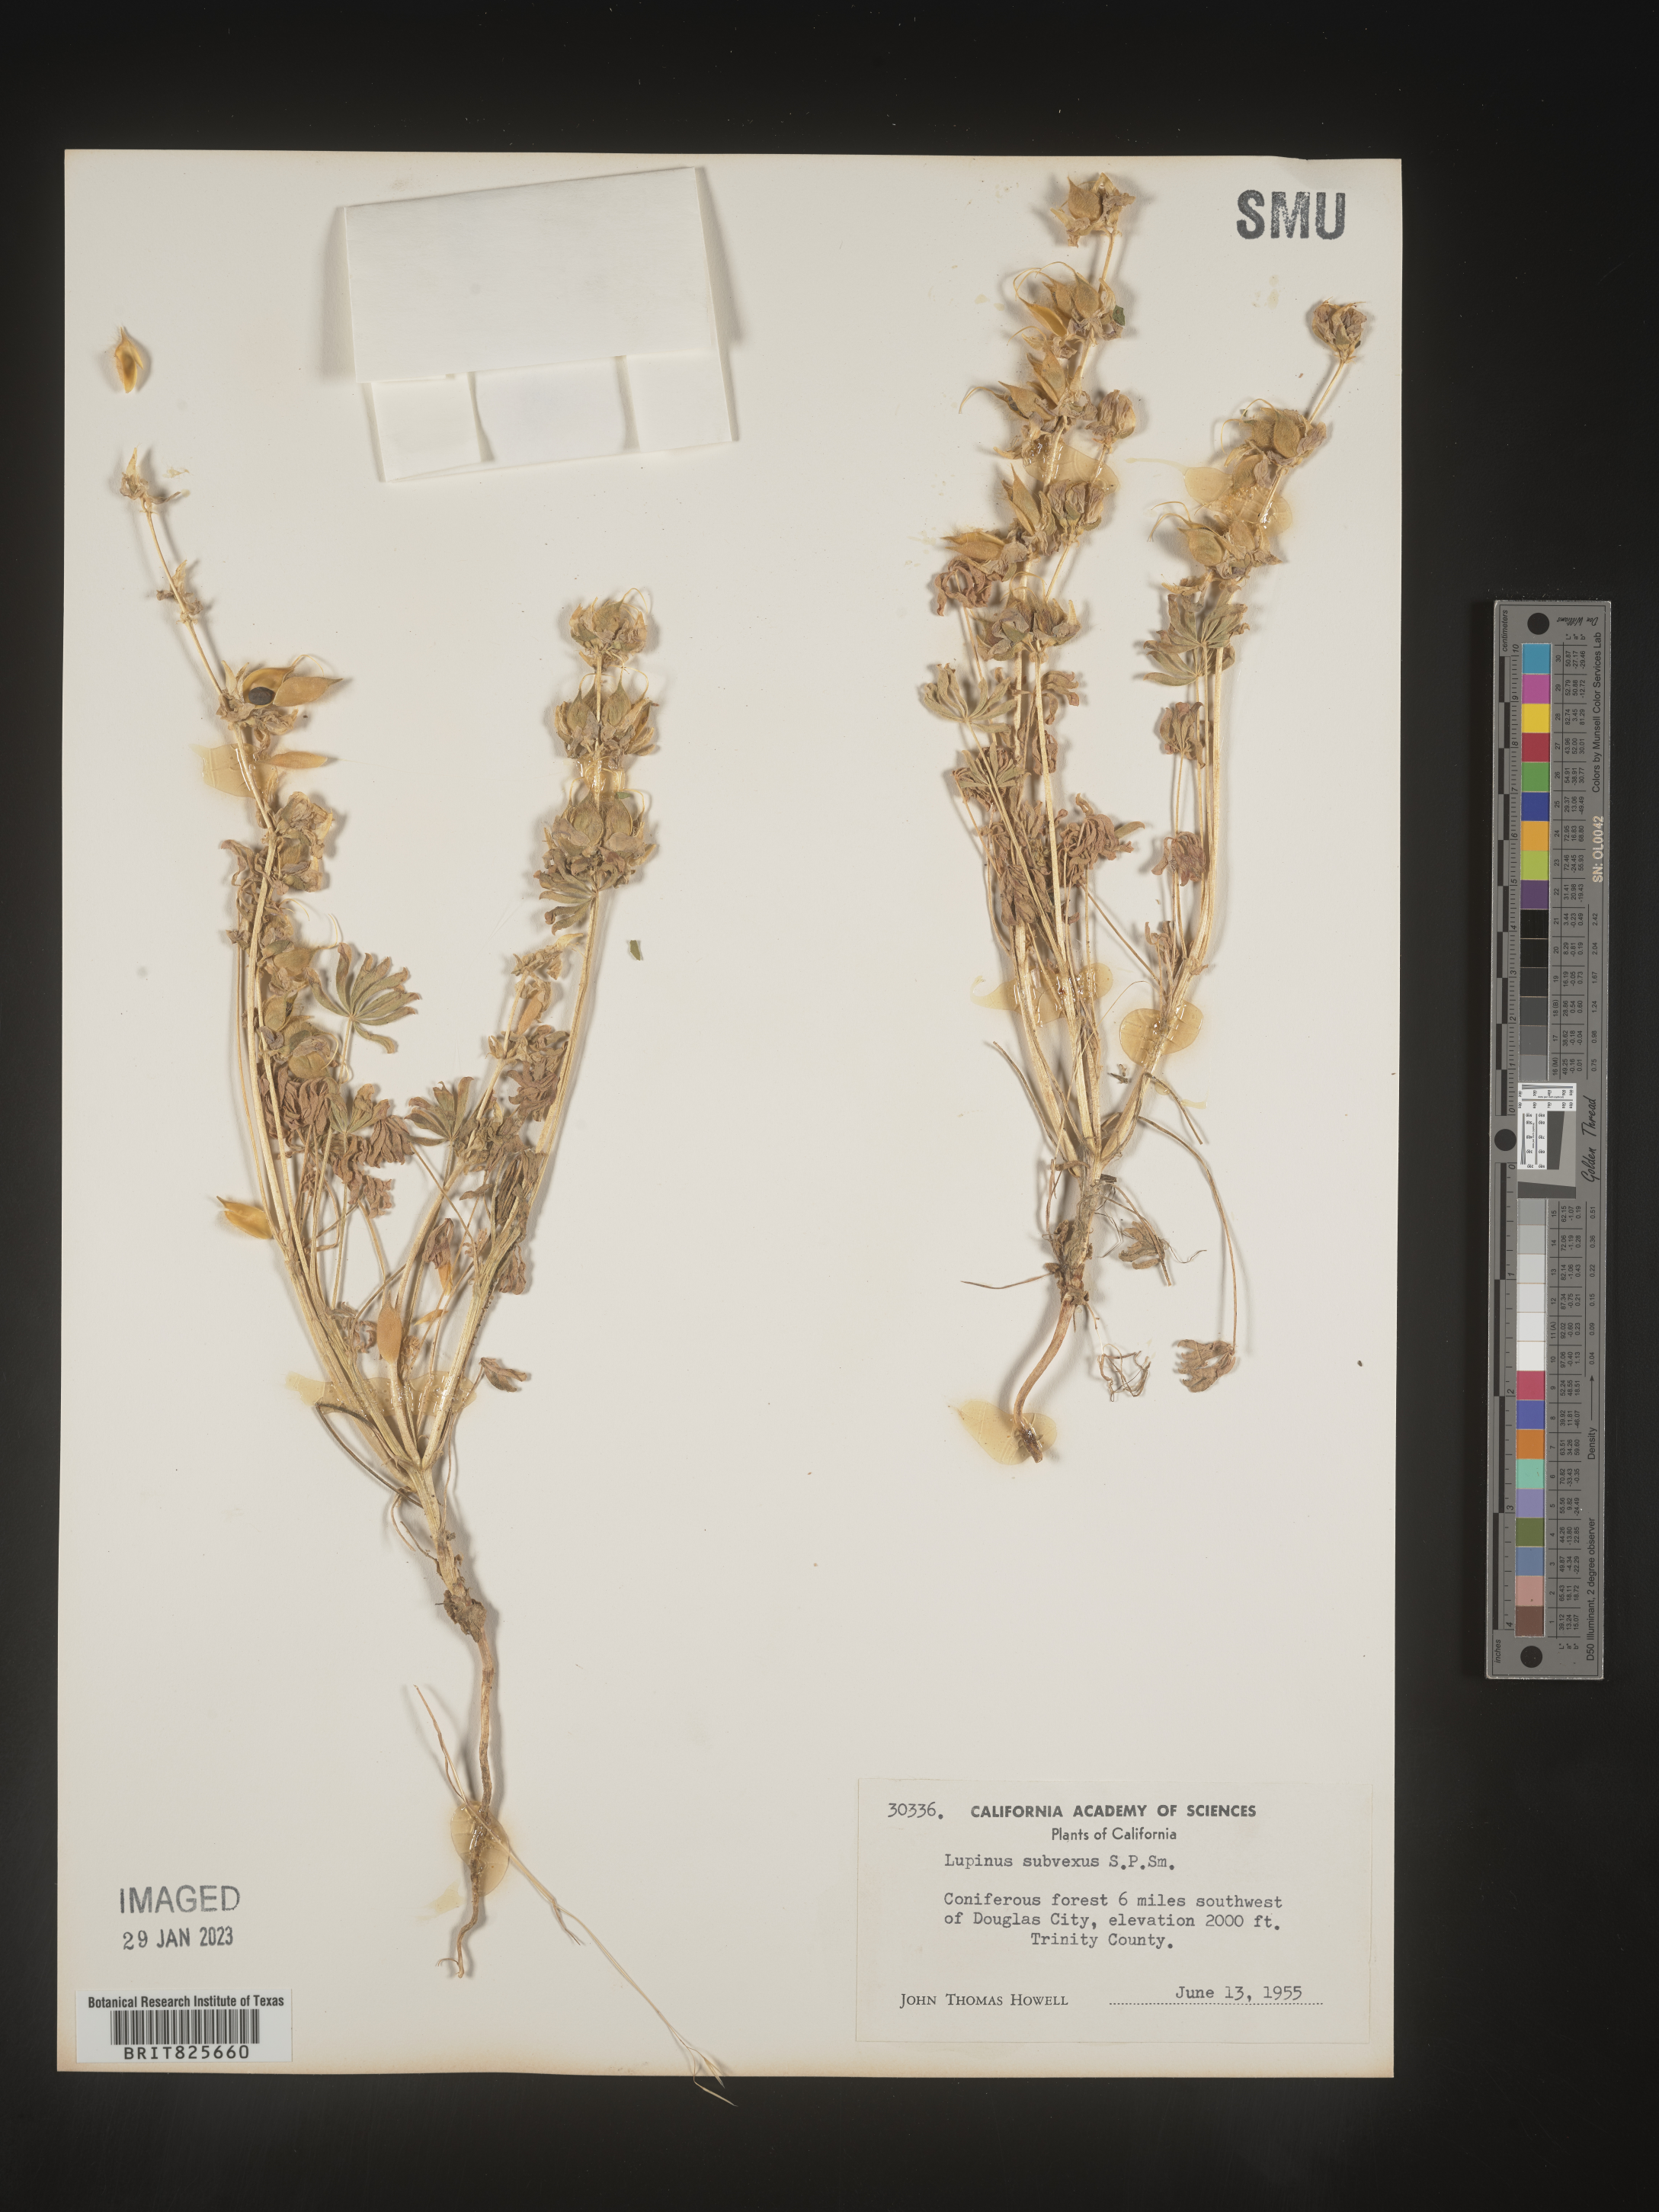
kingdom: Plantae
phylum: Tracheophyta
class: Magnoliopsida
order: Fabales
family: Fabaceae
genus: Lupinus
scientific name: Lupinus
